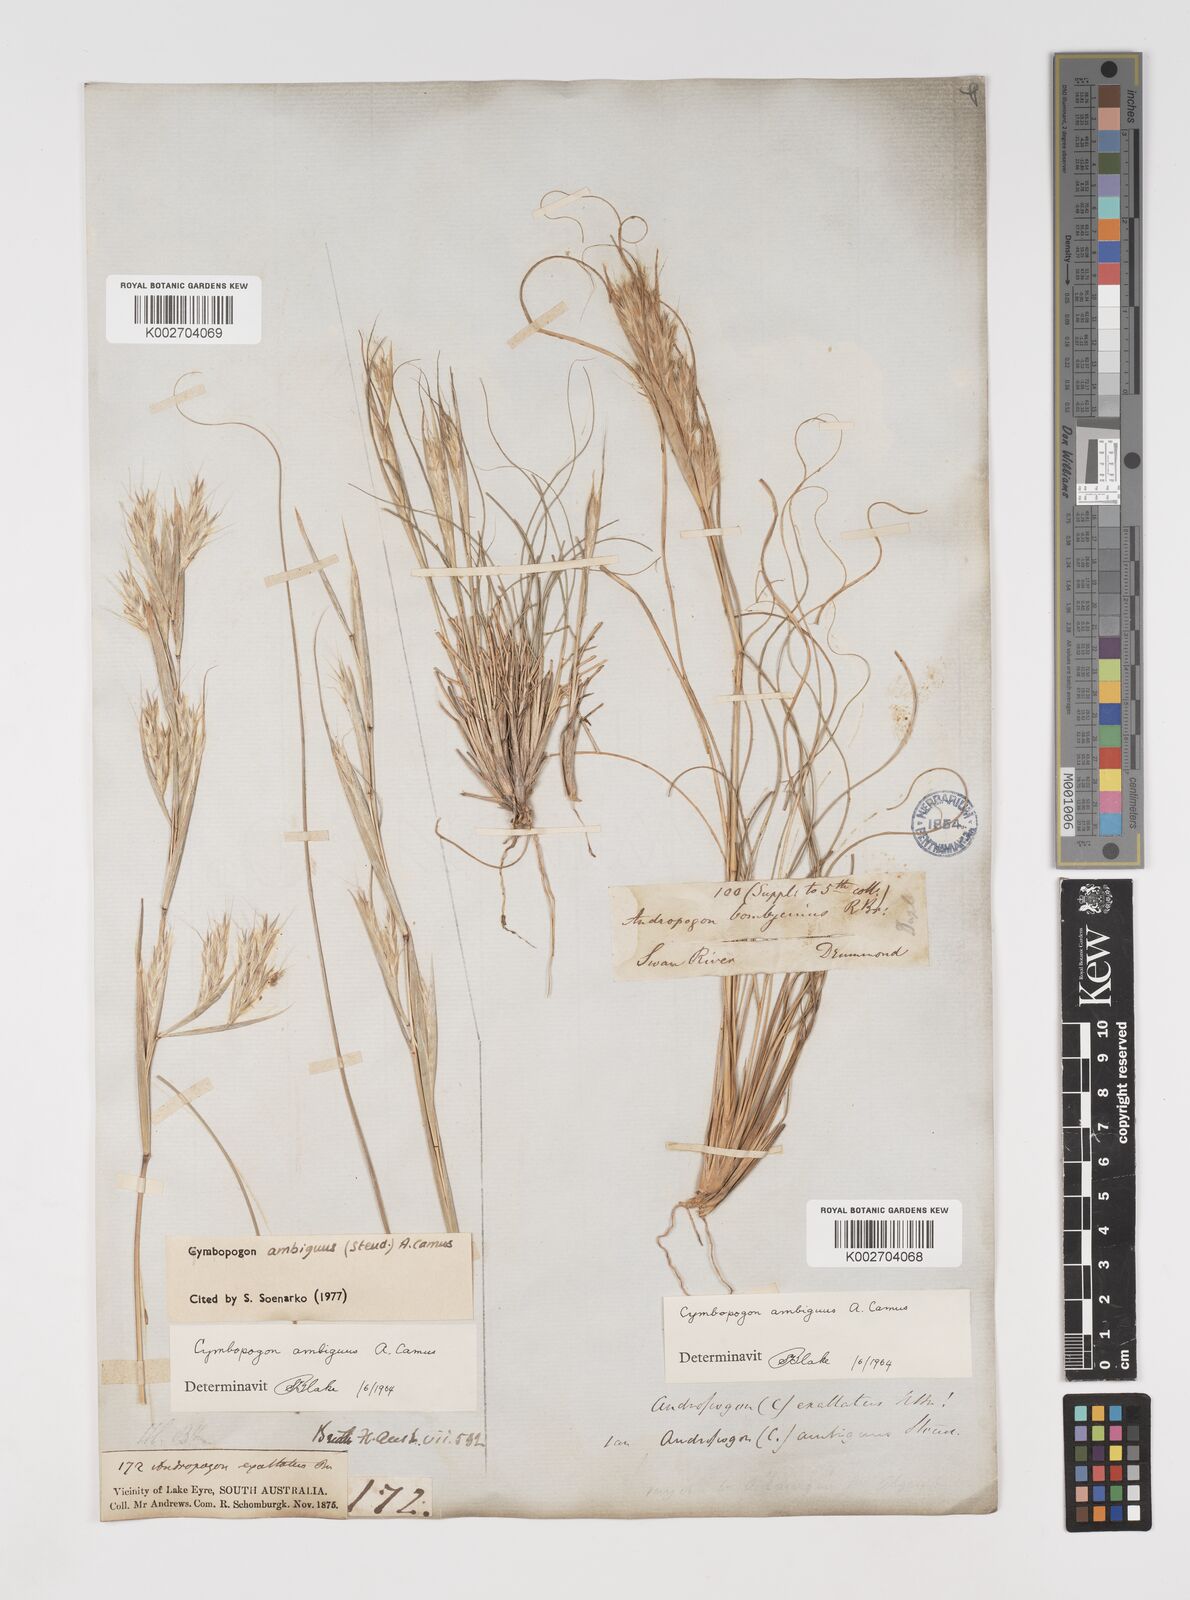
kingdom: Plantae
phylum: Tracheophyta
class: Liliopsida
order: Poales
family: Poaceae
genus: Cymbopogon
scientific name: Cymbopogon ambiguus
